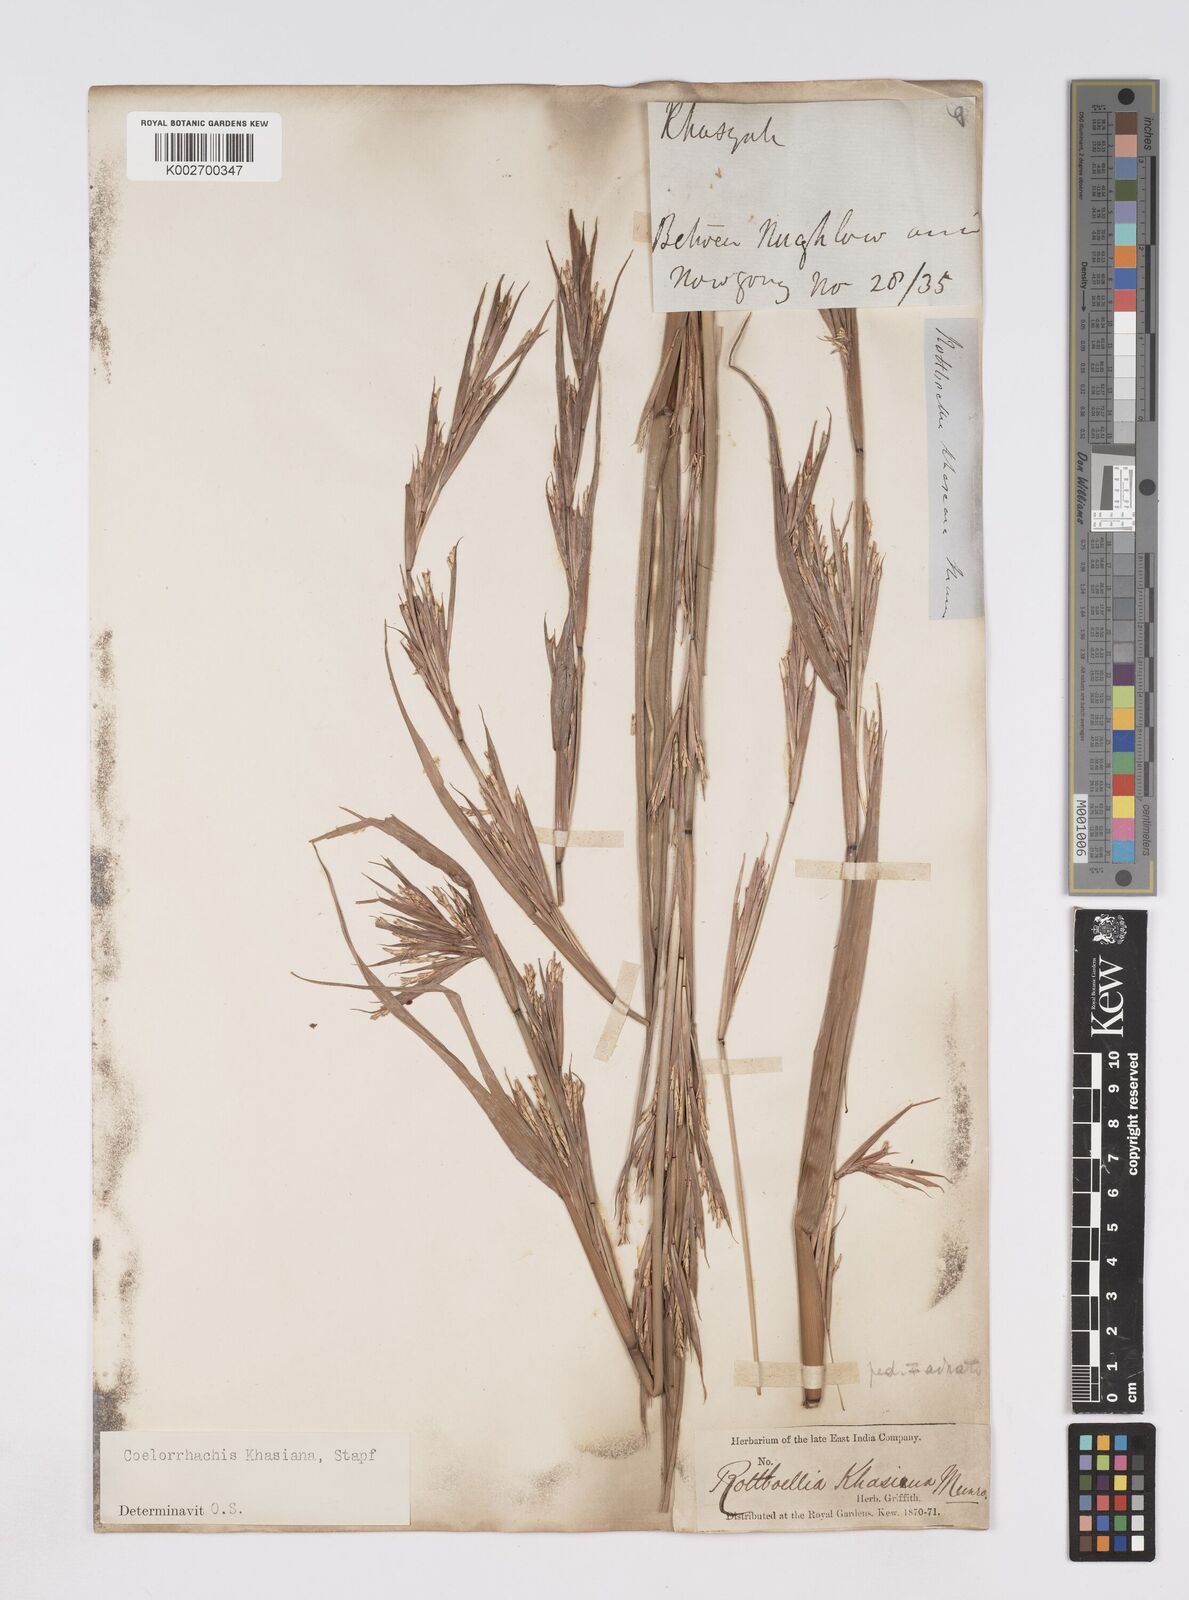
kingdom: Plantae
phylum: Tracheophyta
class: Liliopsida
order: Poales
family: Poaceae
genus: Rottboellia
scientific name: Rottboellia striata
